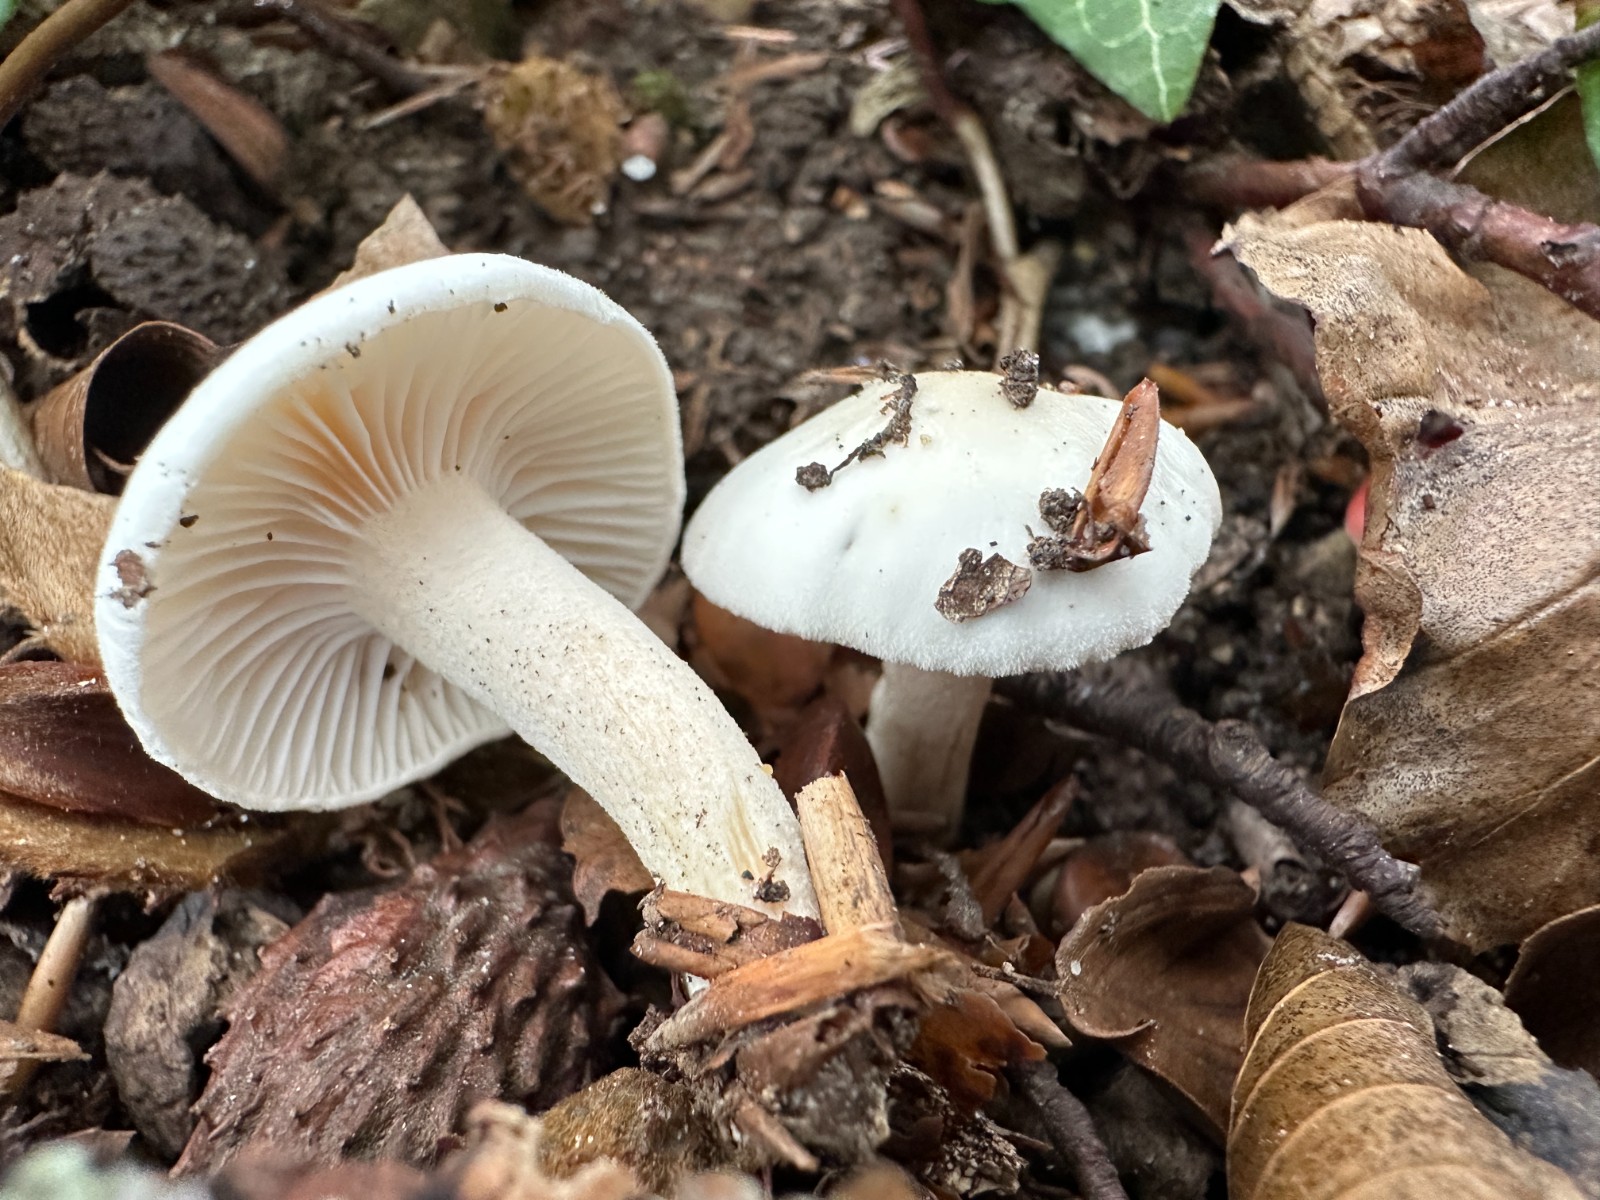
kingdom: Fungi
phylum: Basidiomycota
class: Agaricomycetes
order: Agaricales
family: Hygrophoraceae
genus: Hygrophorus
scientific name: Hygrophorus eburneus
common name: elfenbens-sneglehat
